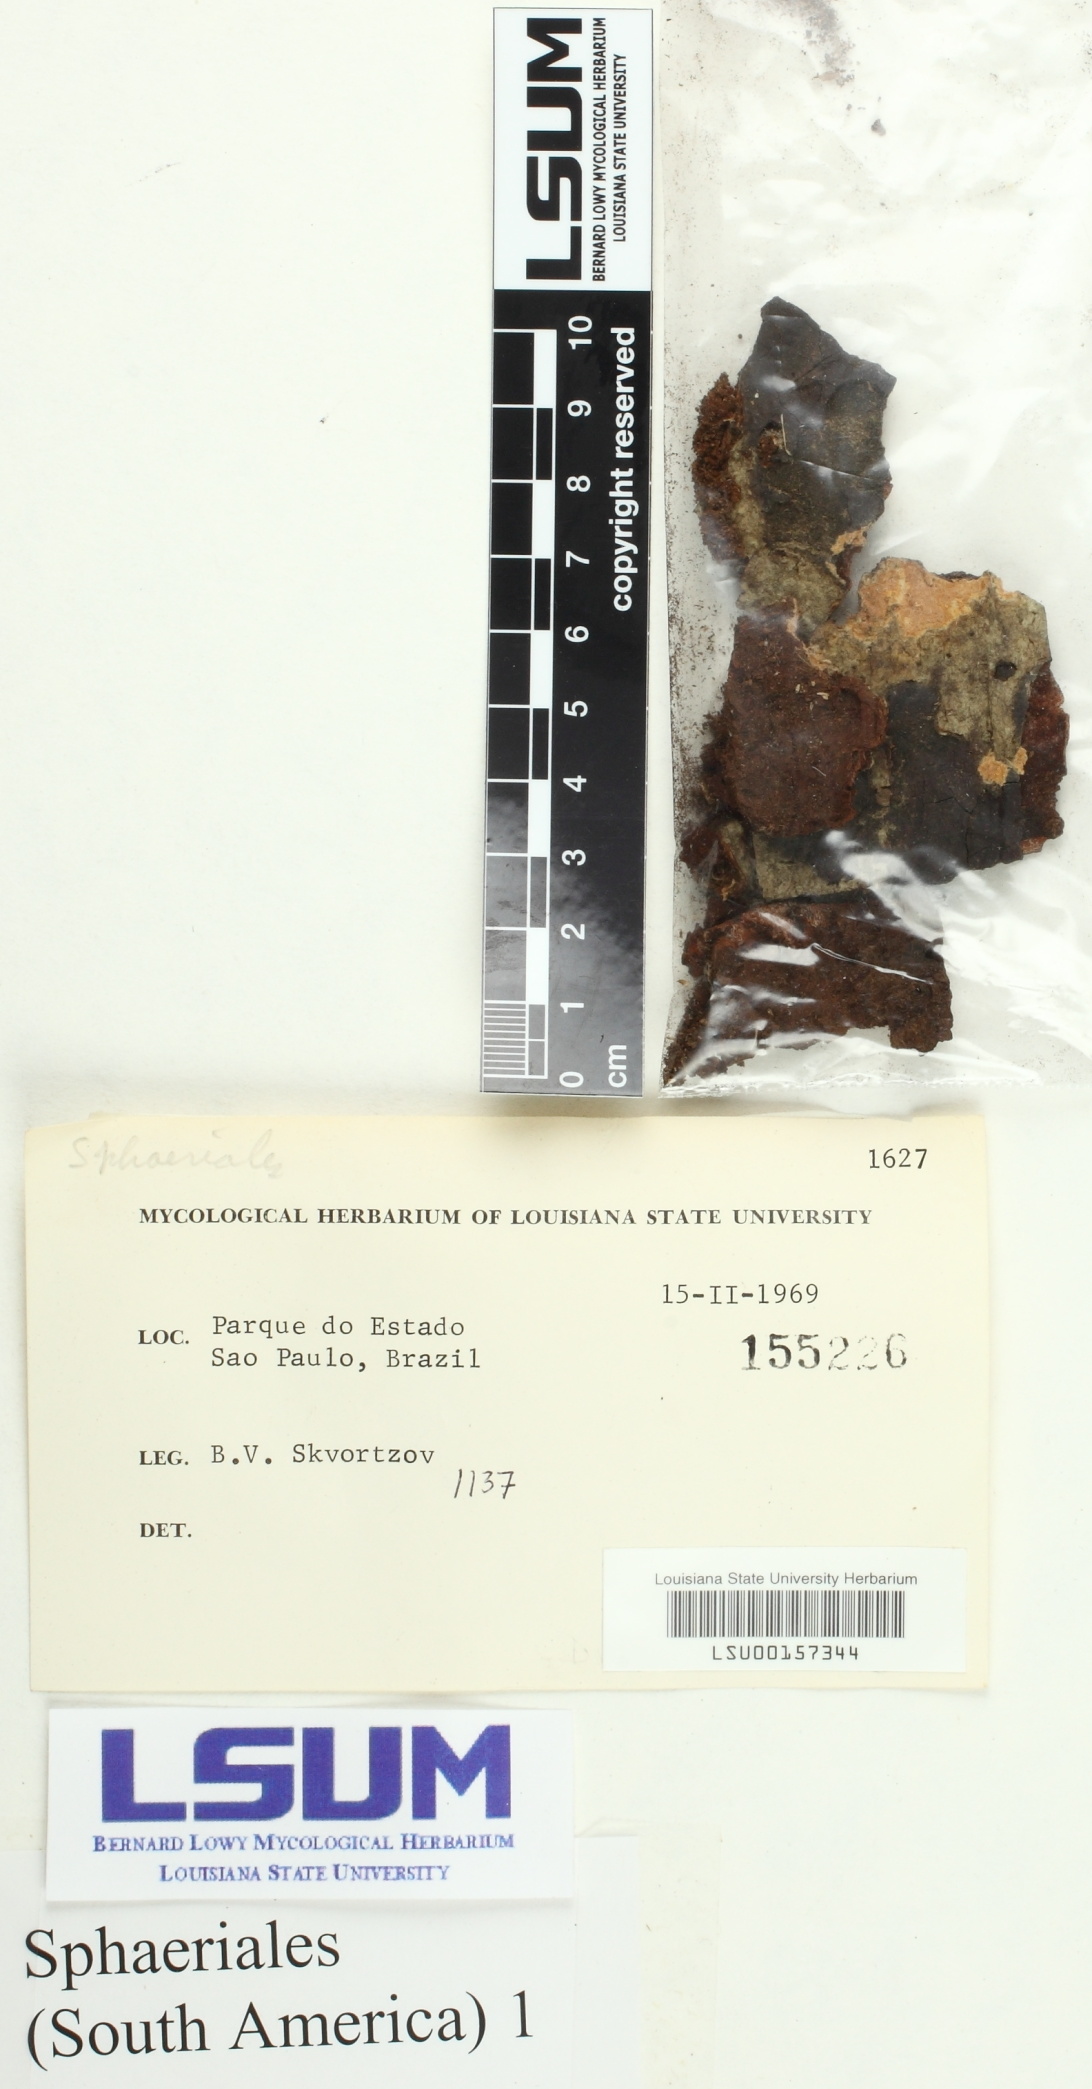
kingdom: Fungi
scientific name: Fungi
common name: Fungi
